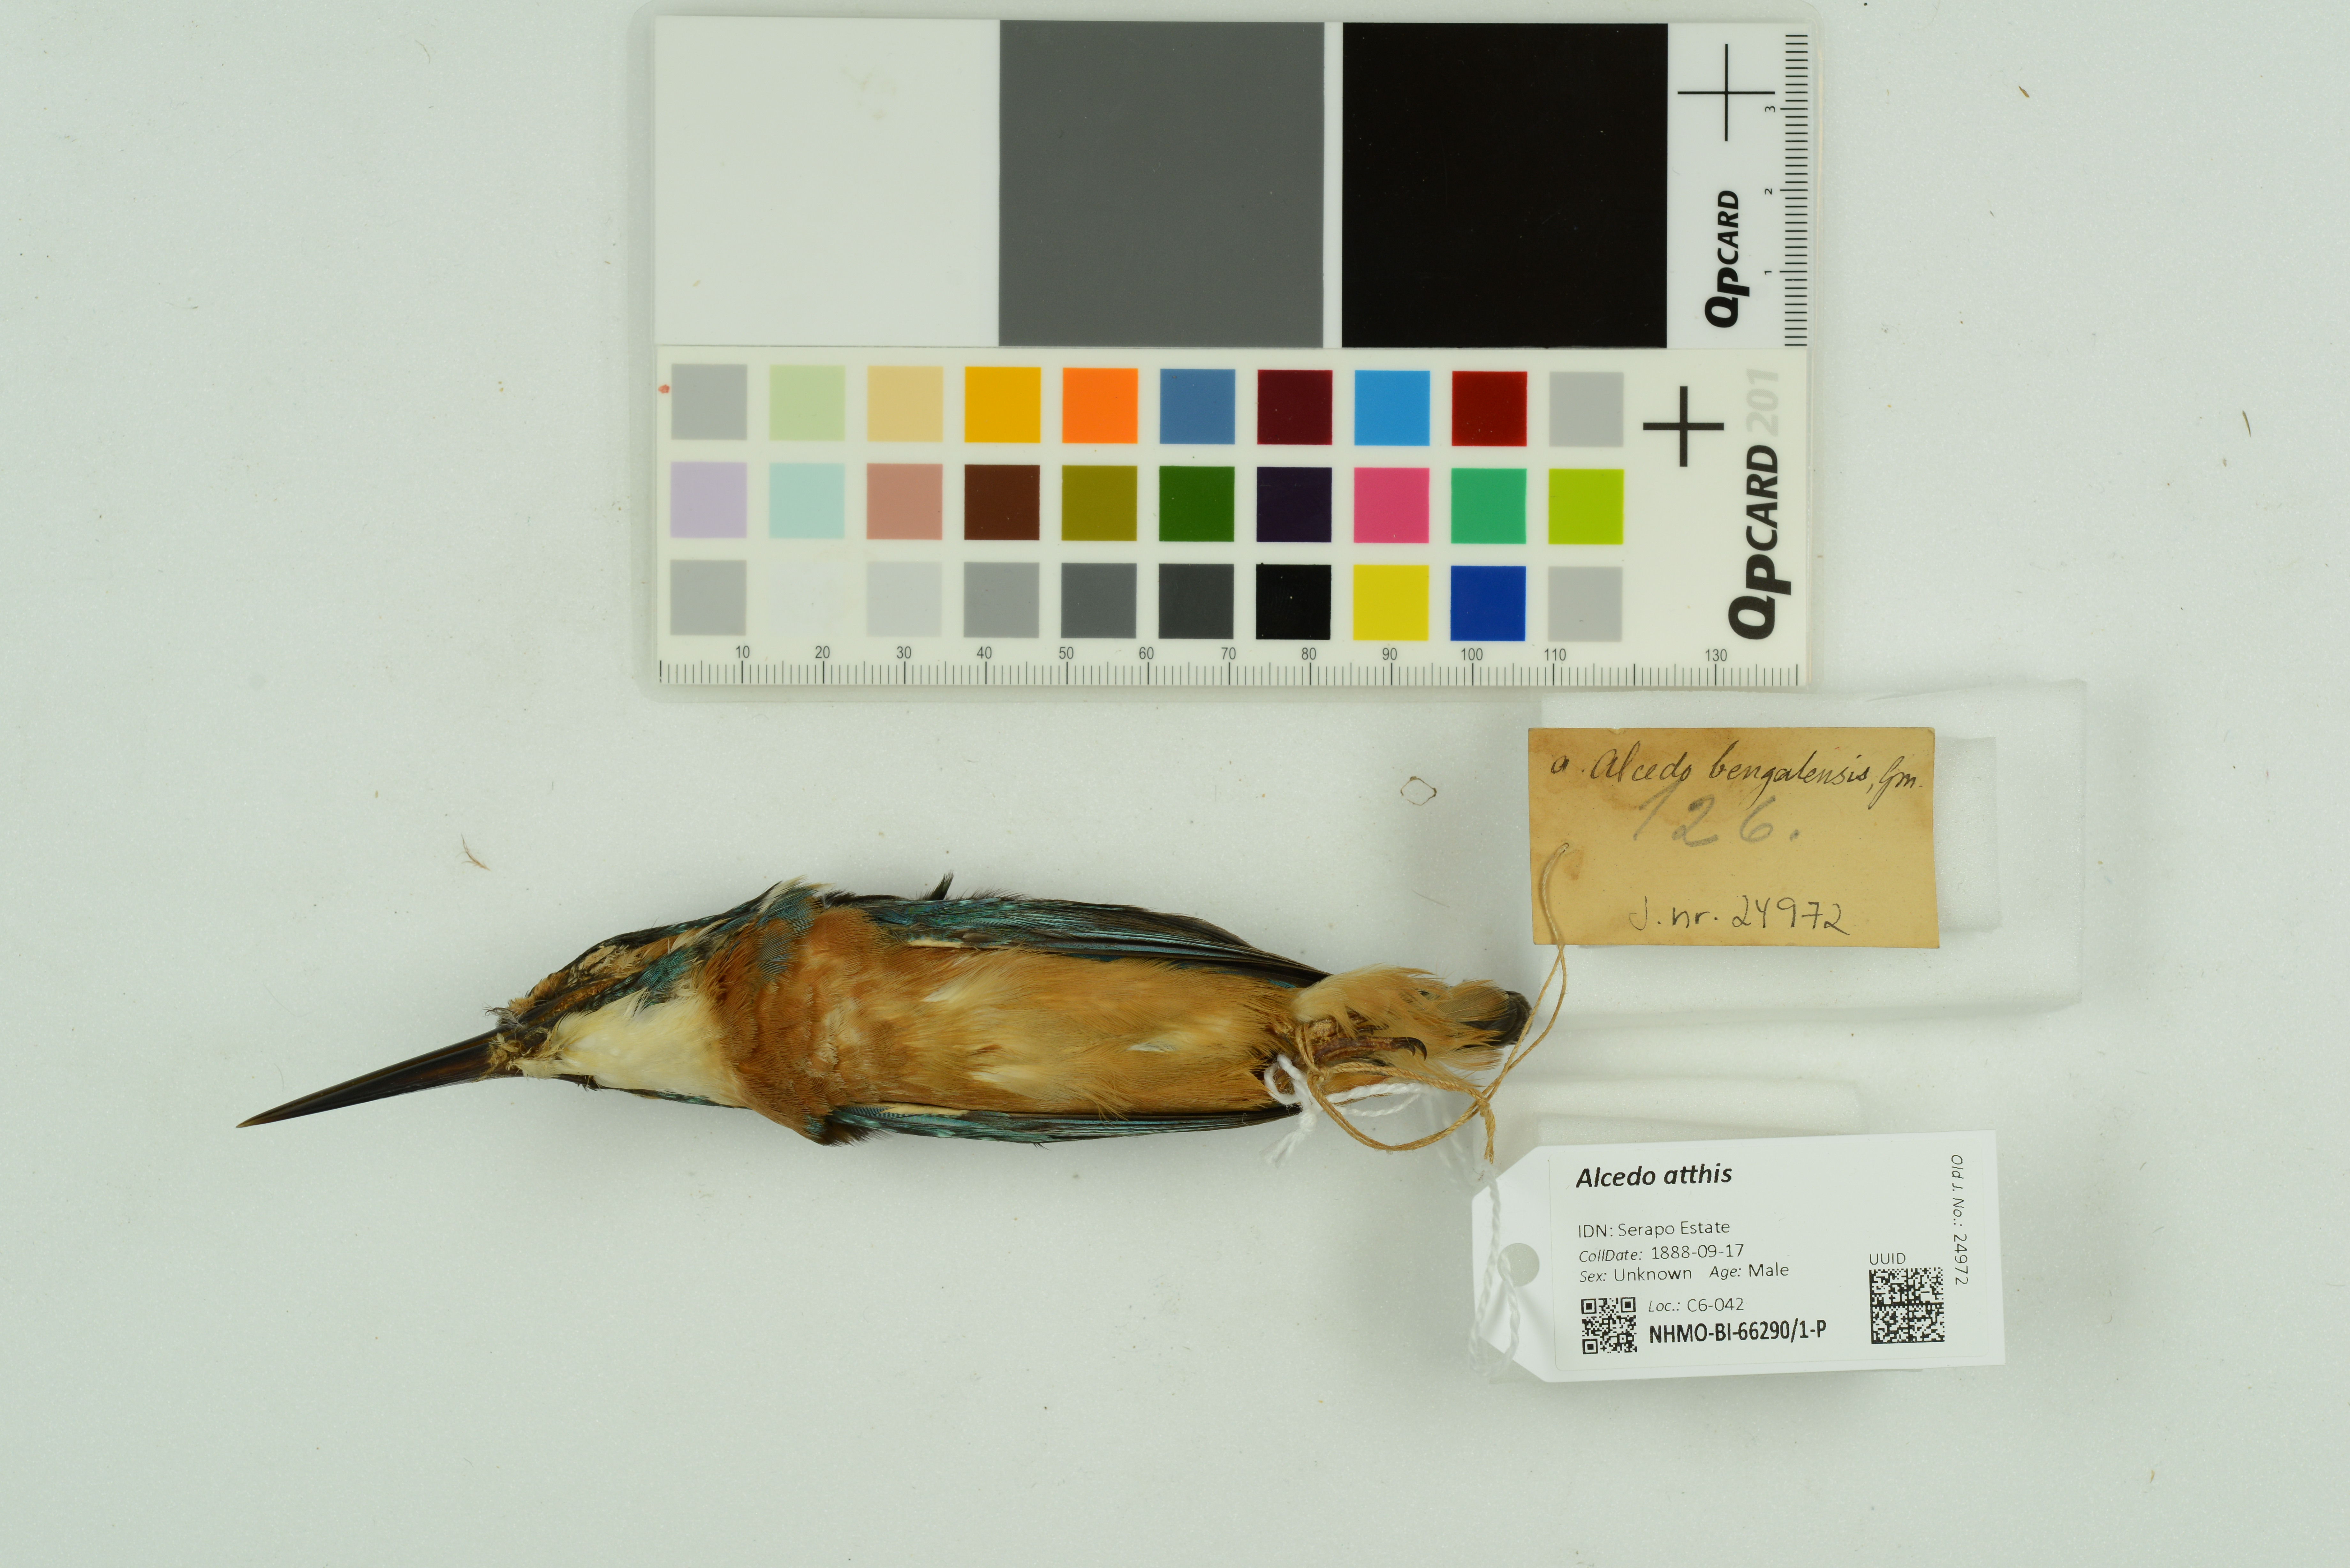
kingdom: Animalia
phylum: Chordata
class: Aves
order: Coraciiformes
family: Alcedinidae
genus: Alcedo
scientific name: Alcedo atthis
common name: Common kingfisher
